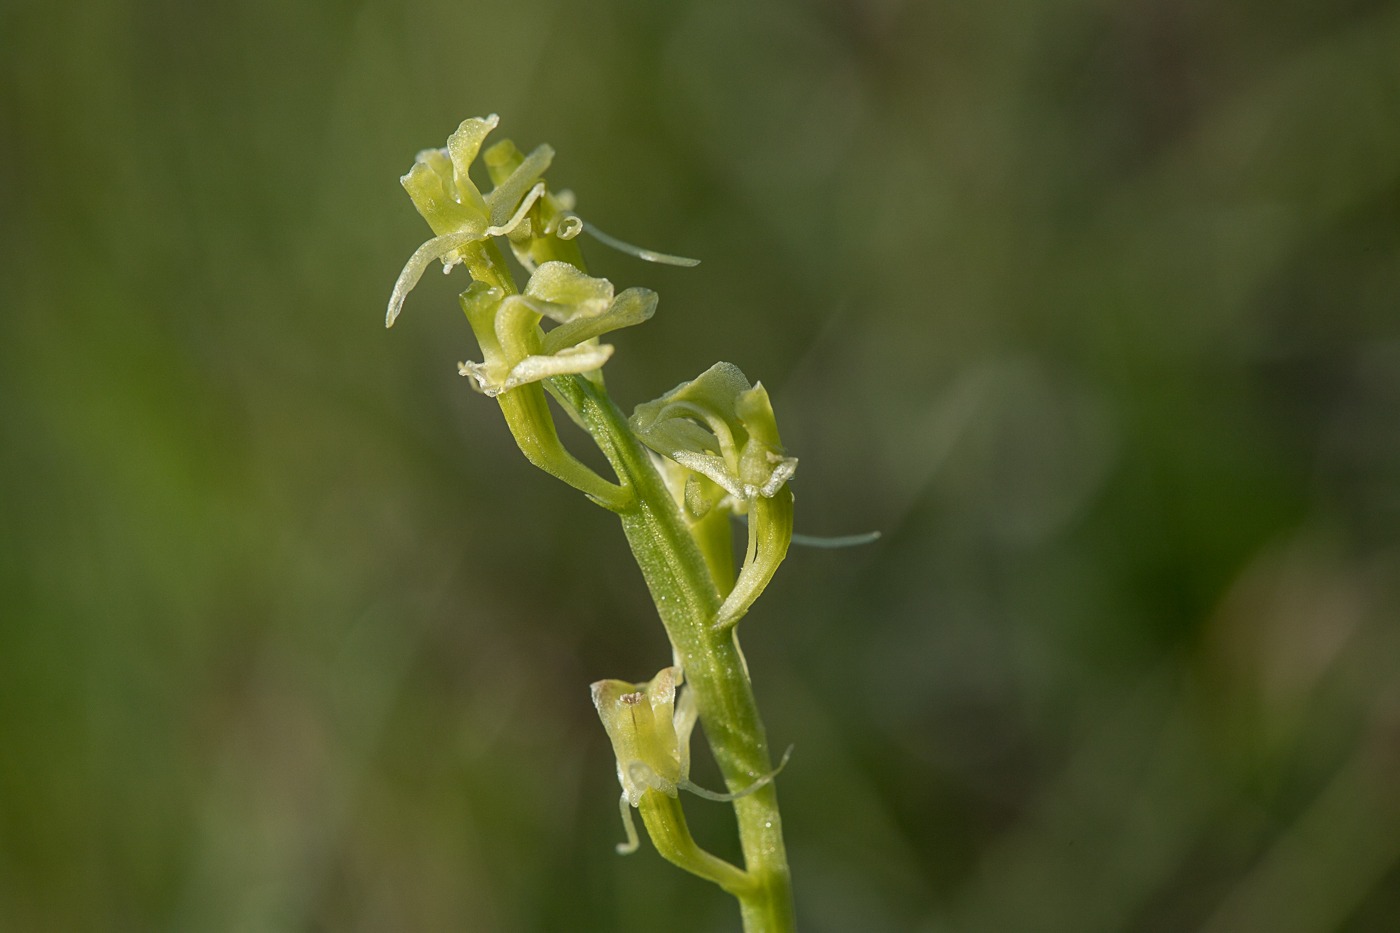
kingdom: Animalia
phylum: Arthropoda
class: Insecta
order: Coleoptera
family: Curculionidae
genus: Liparis
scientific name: Liparis loeselii
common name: Mygblomst
